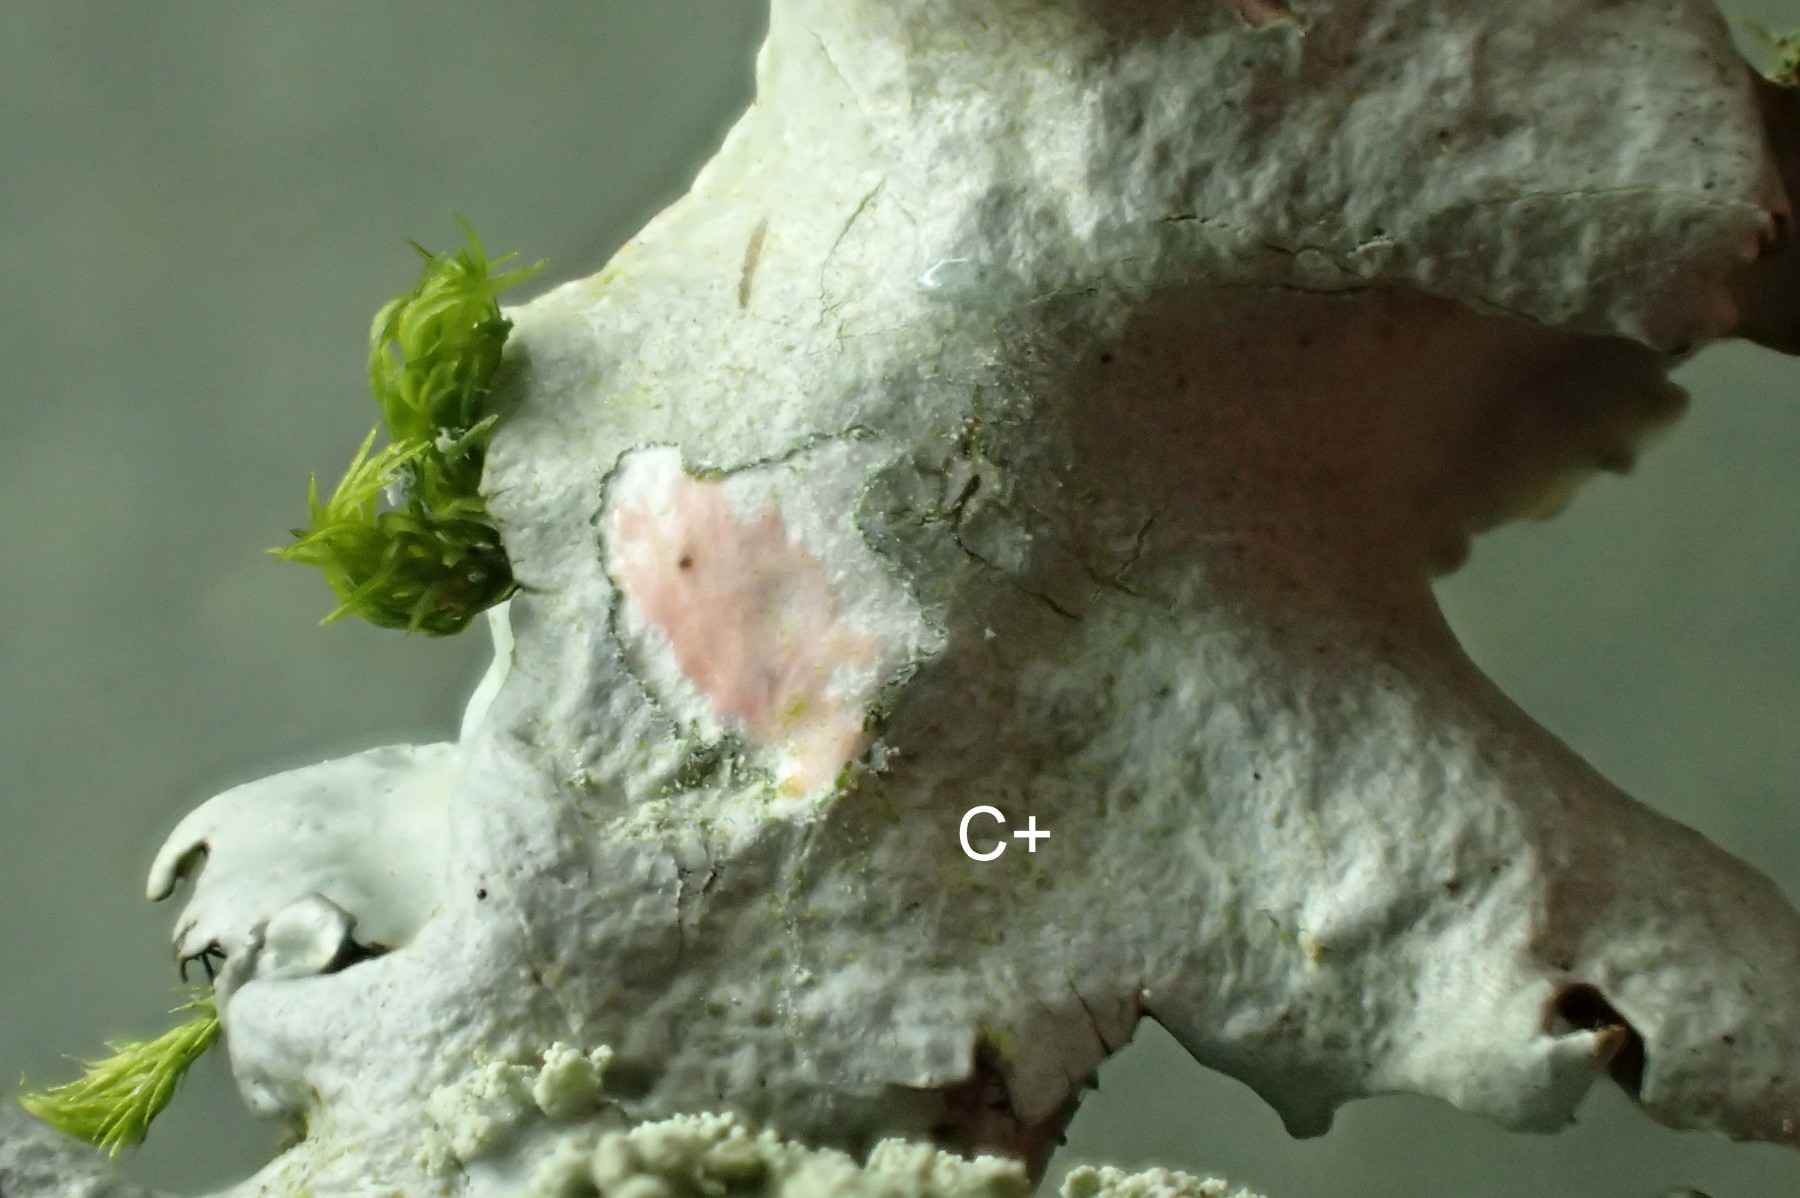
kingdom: Fungi
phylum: Ascomycota
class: Lecanoromycetes
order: Lecanorales
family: Parmeliaceae
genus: Hypotrachyna
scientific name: Hypotrachyna afrorevoluta
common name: kyst-skållav
